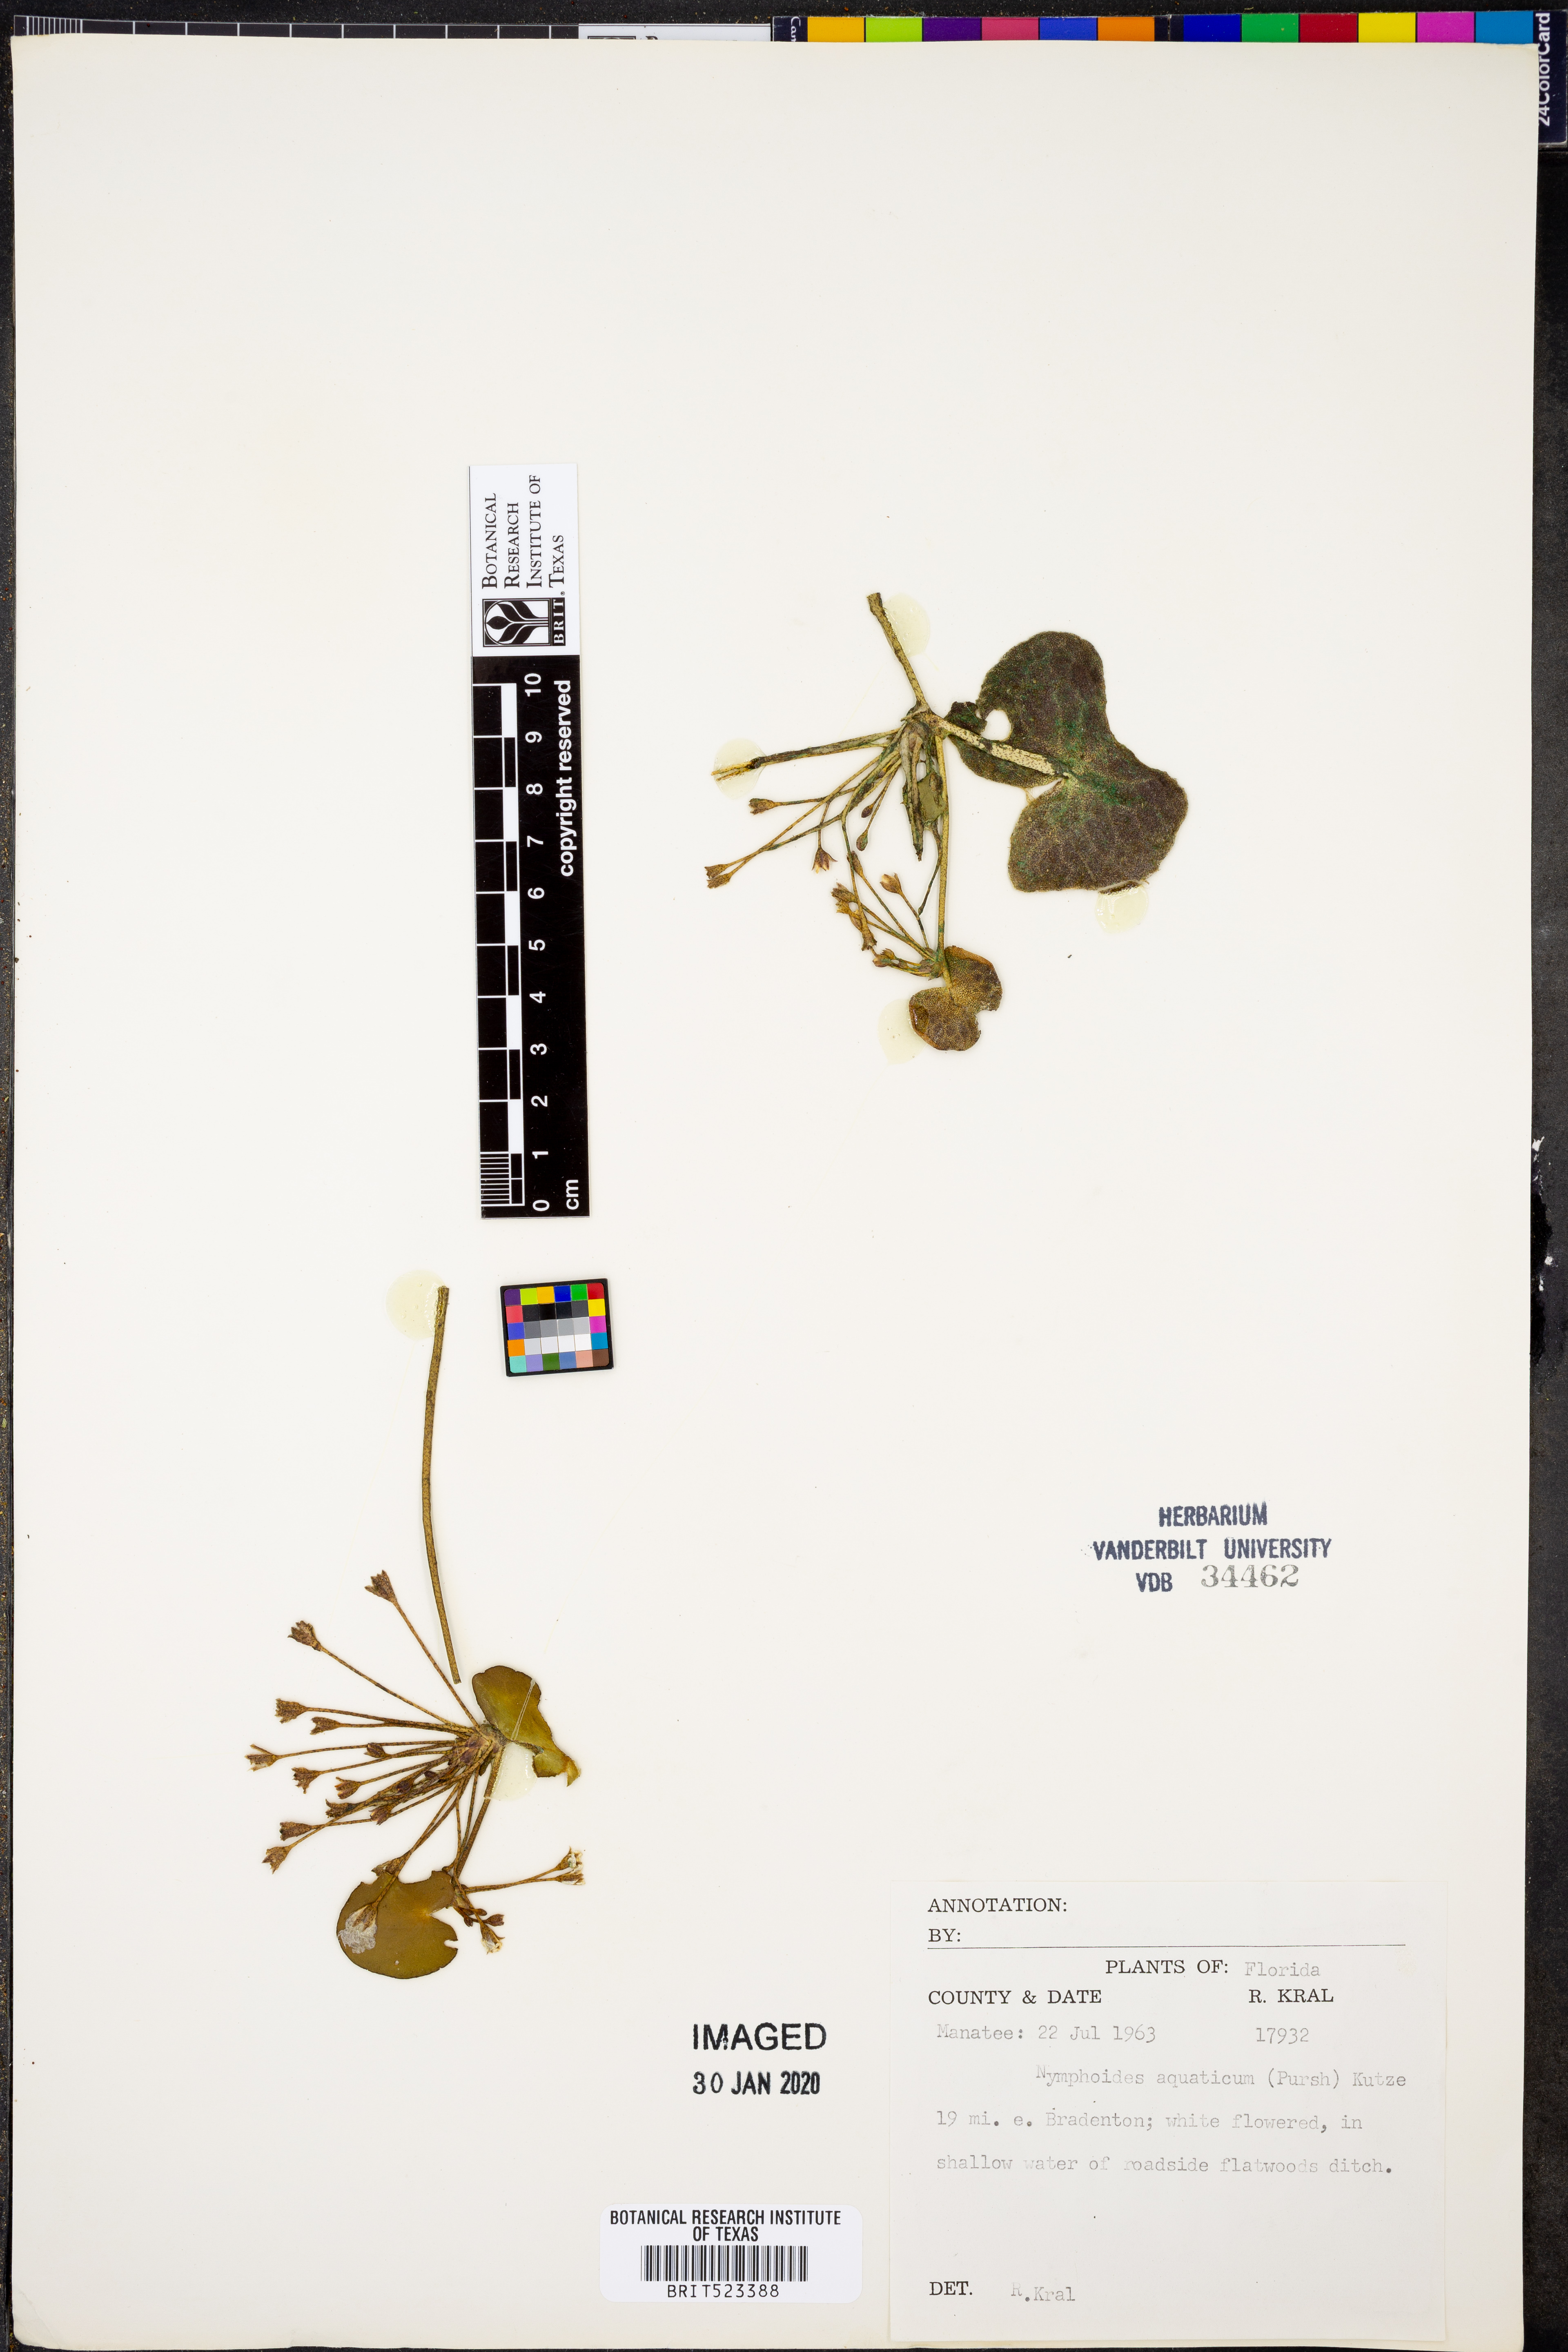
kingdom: Plantae
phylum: Tracheophyta
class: Magnoliopsida
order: Asterales
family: Menyanthaceae
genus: Nymphoides
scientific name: Nymphoides aquatica
